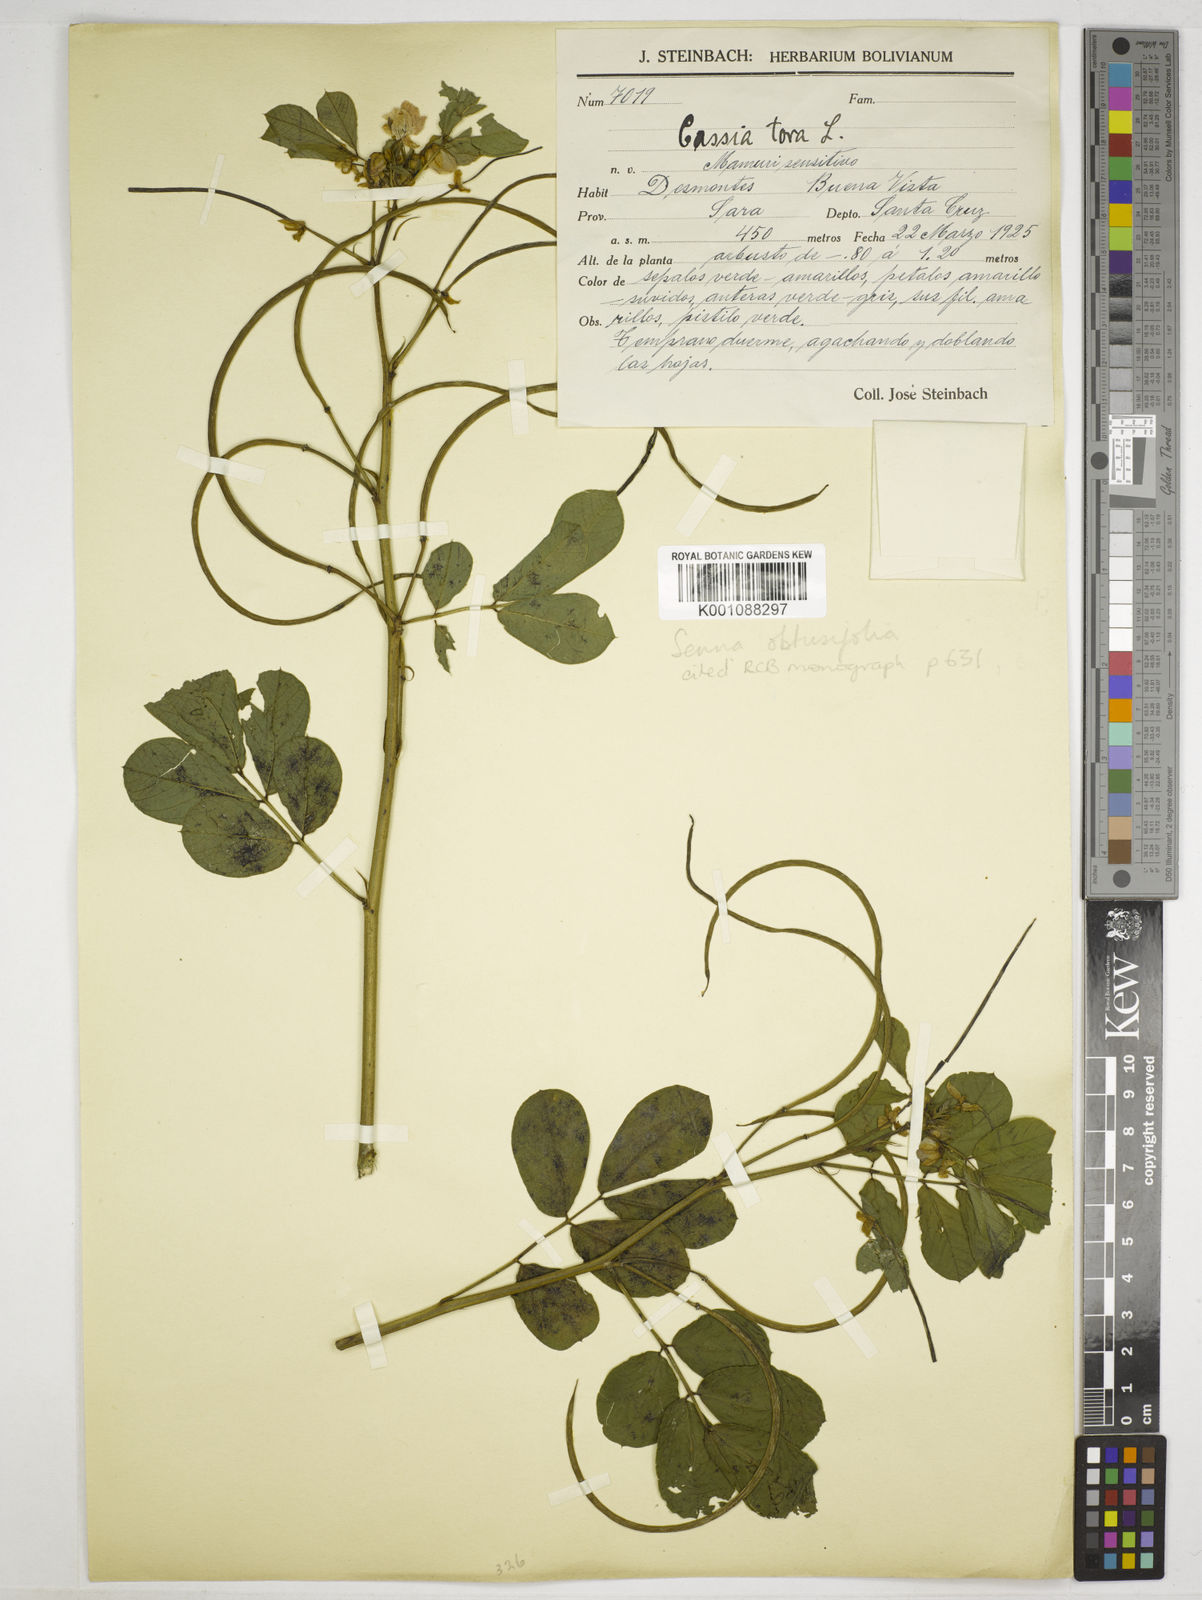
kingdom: Plantae
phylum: Tracheophyta
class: Magnoliopsida
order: Fabales
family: Fabaceae
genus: Senna
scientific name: Senna obtusifolia
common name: Java-bean
